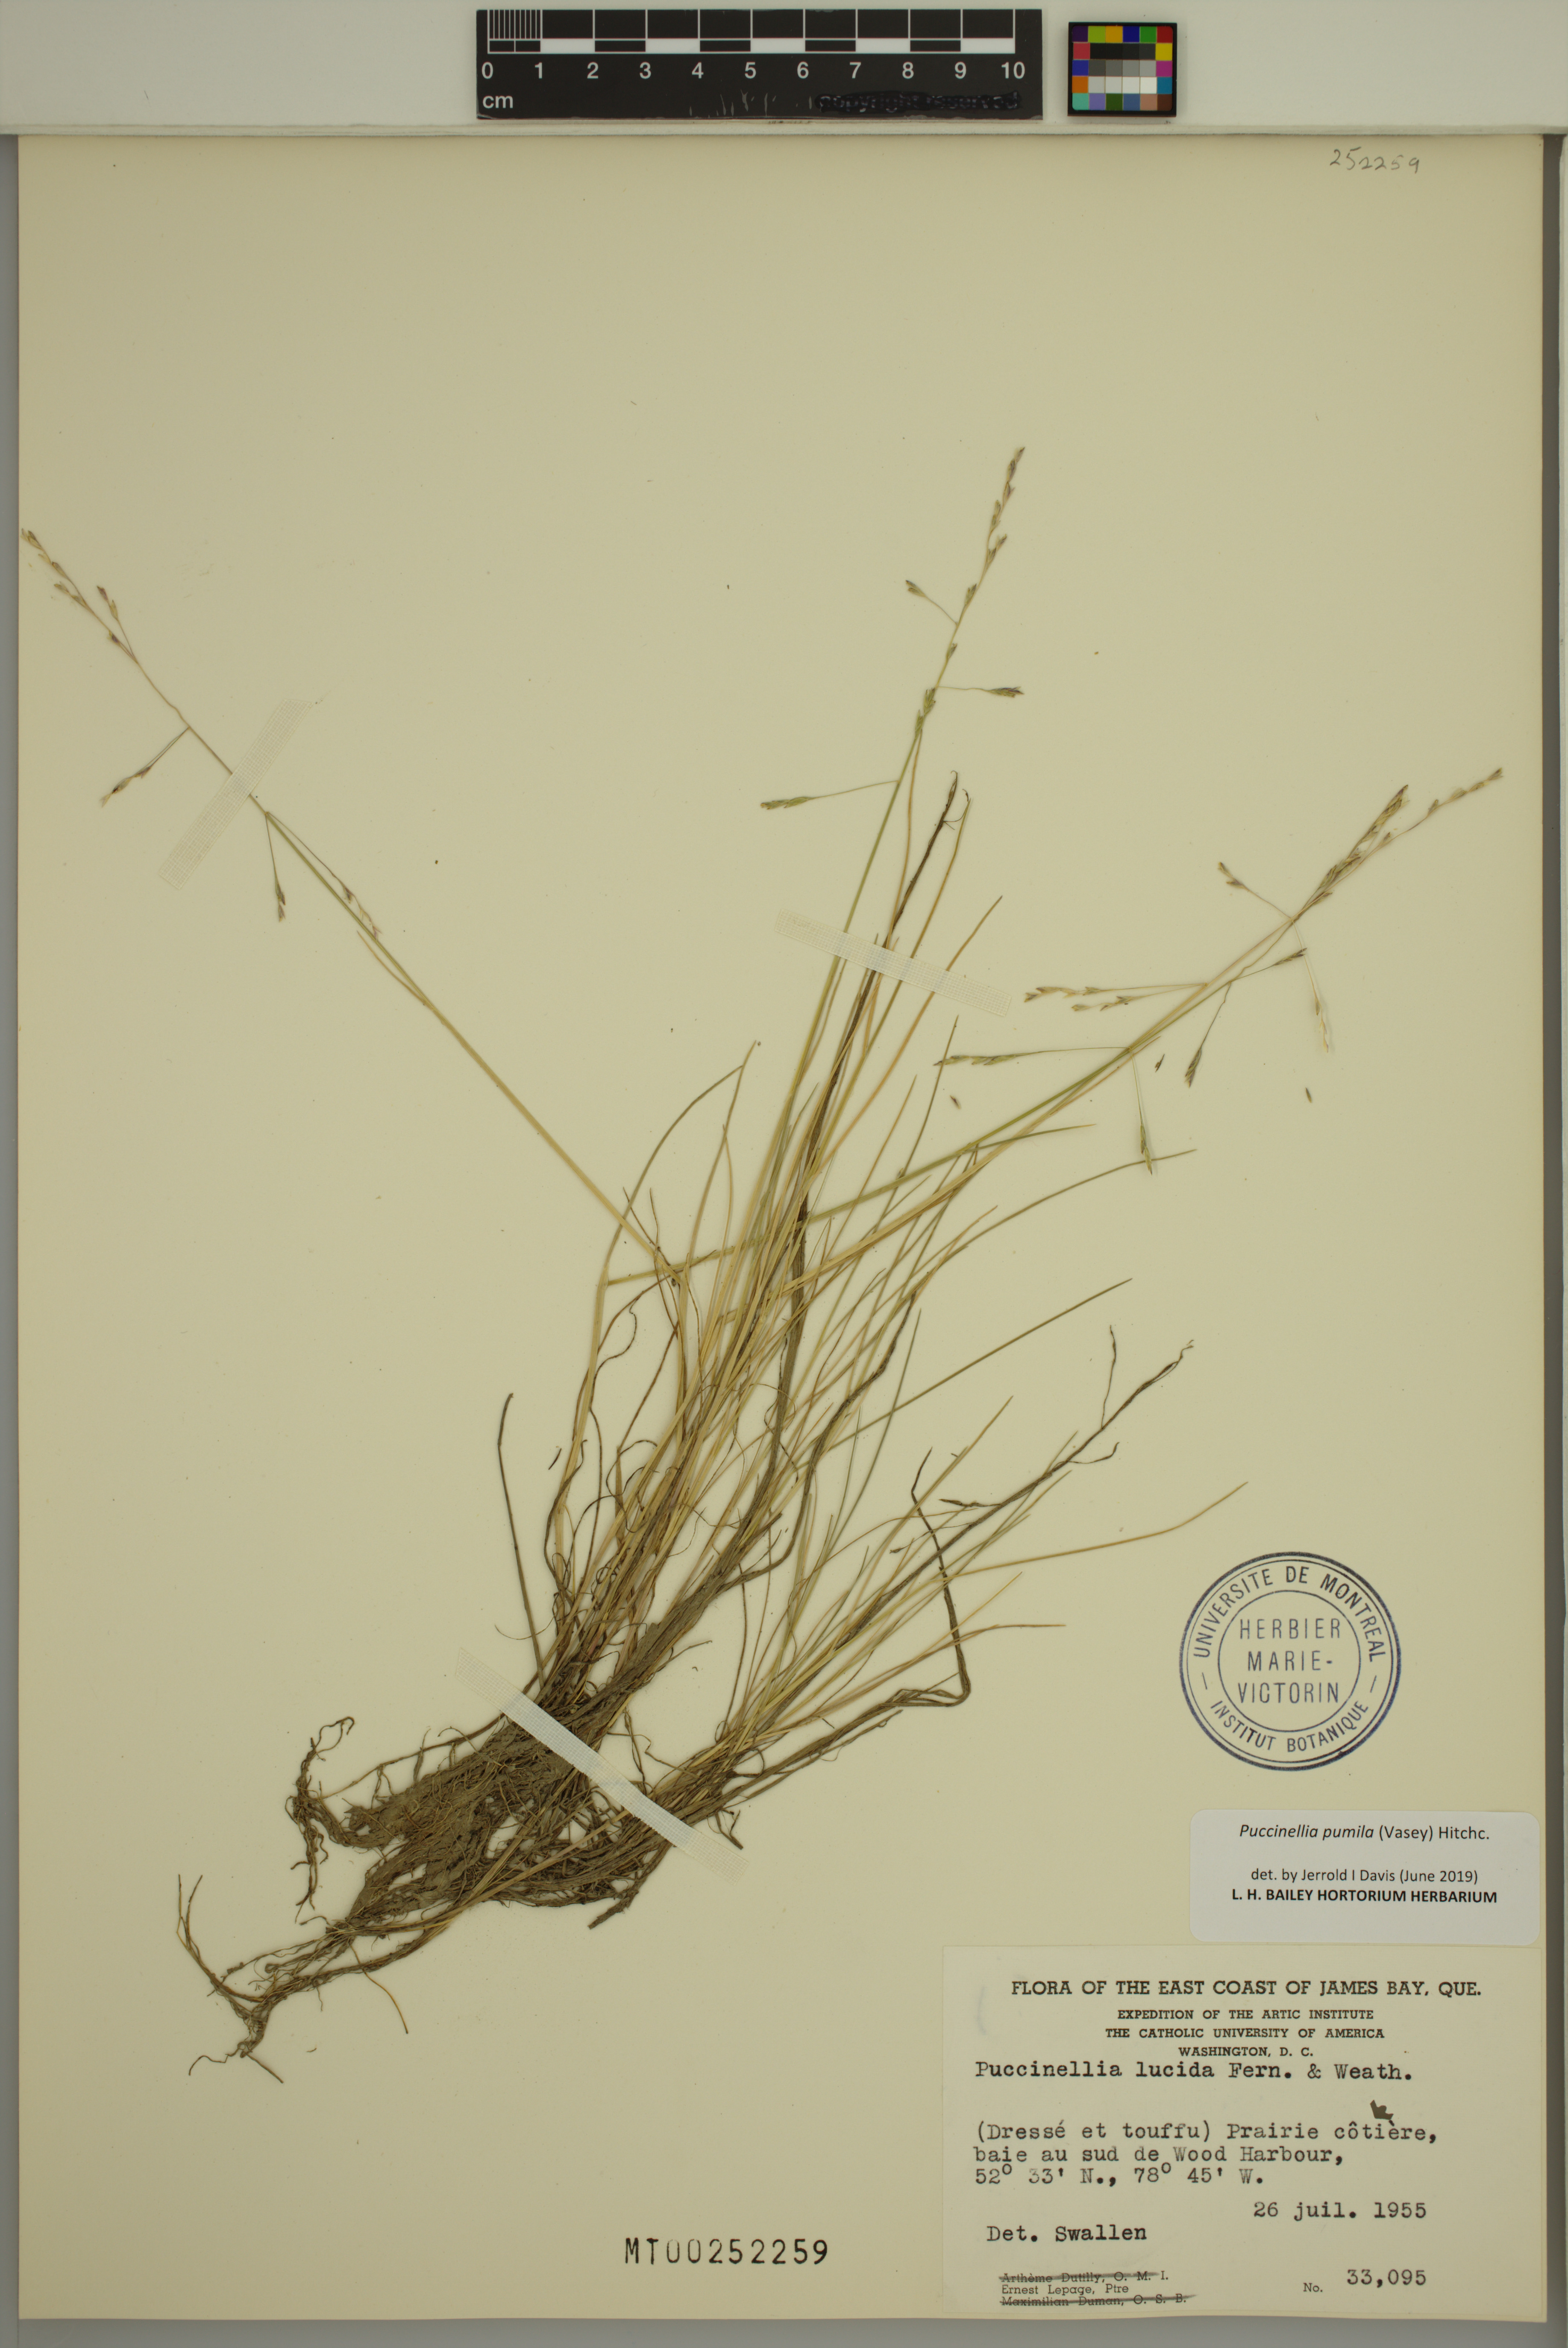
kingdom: Plantae
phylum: Tracheophyta
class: Liliopsida
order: Poales
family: Poaceae
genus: Puccinellia
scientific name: Puccinellia pumila
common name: Dwarf alkaligrass
